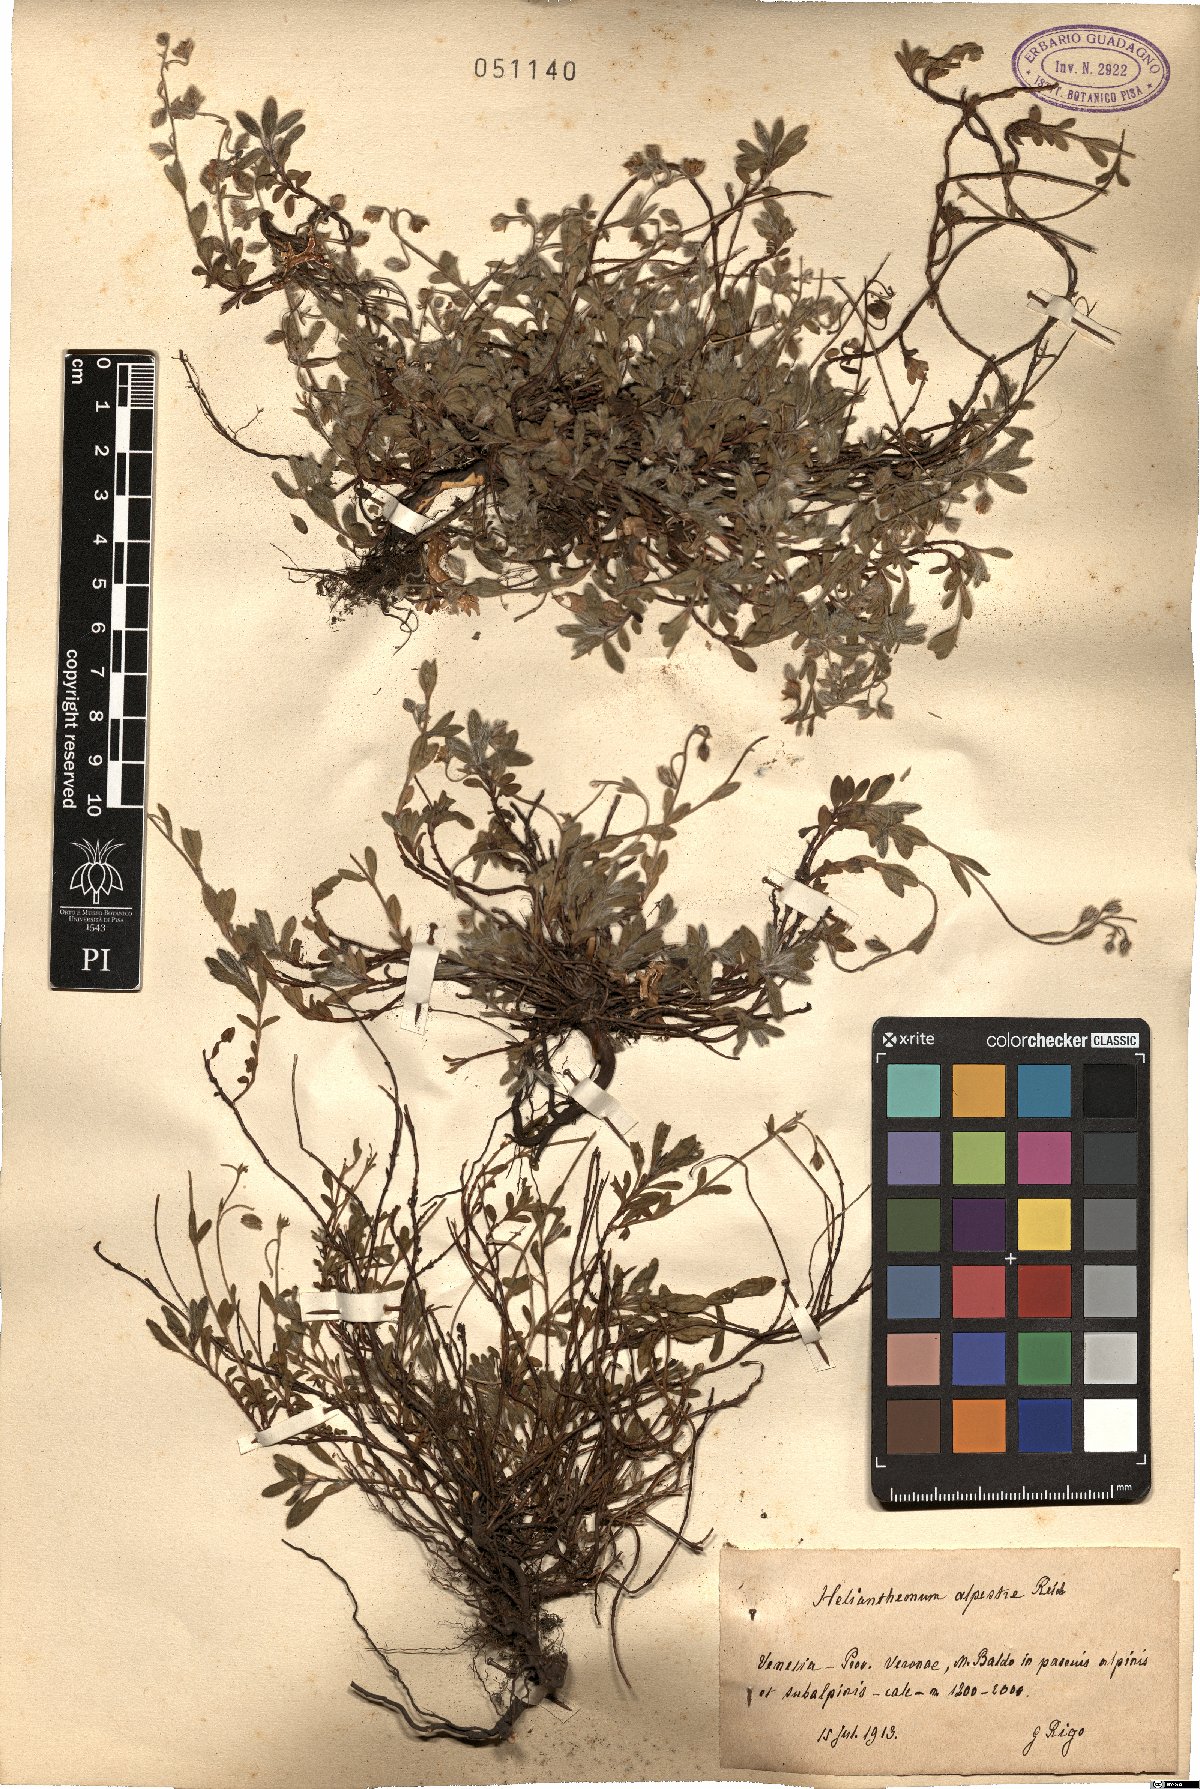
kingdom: Plantae
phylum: Tracheophyta
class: Magnoliopsida
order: Malvales
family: Cistaceae
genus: Helianthemum
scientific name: Helianthemum alpestre
